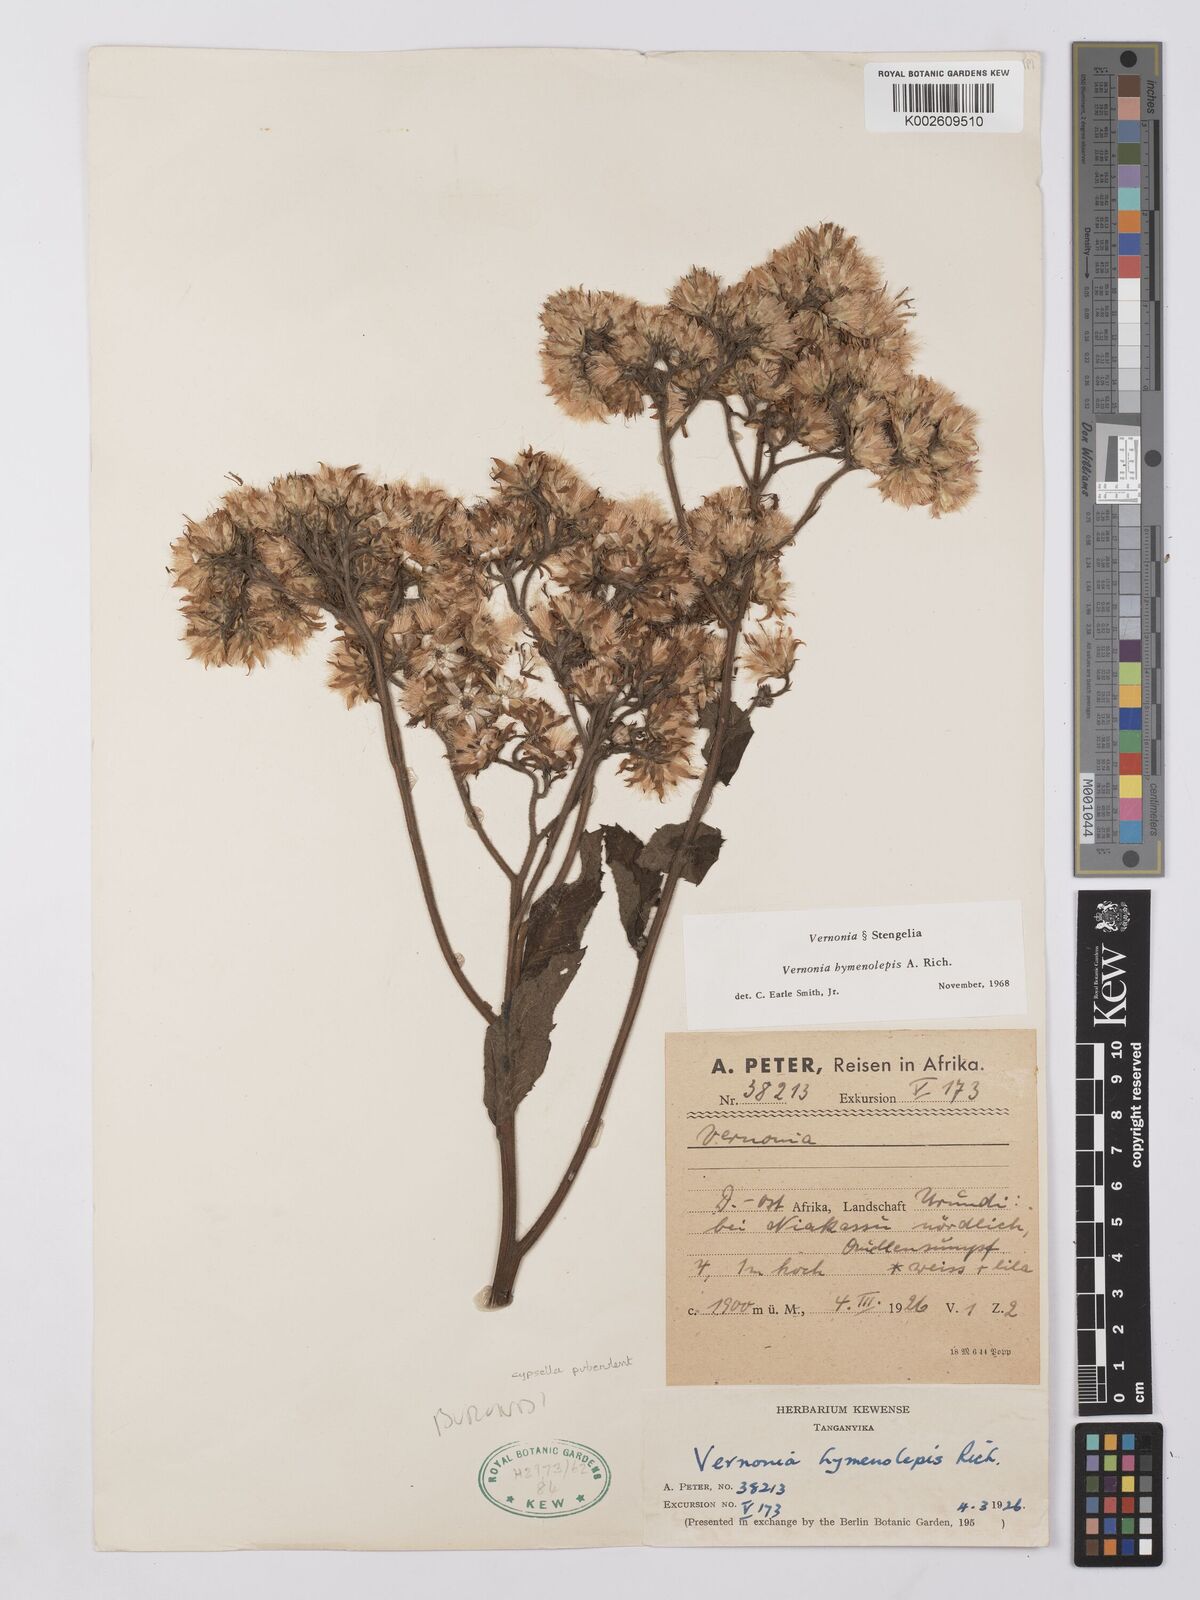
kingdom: Plantae
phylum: Tracheophyta
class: Magnoliopsida
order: Asterales
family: Asteraceae
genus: Vernonia
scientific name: Vernonia
